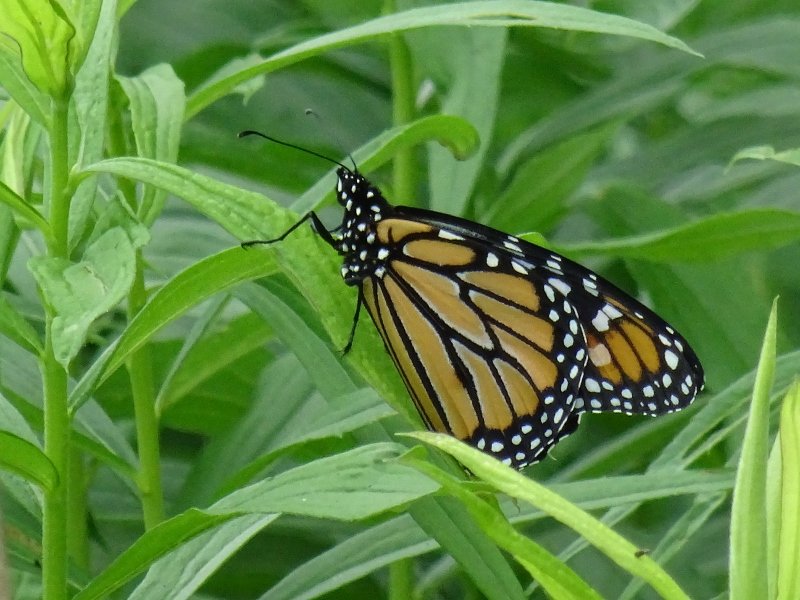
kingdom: Animalia
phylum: Arthropoda
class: Insecta
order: Lepidoptera
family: Nymphalidae
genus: Danaus
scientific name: Danaus plexippus
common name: Monarch
